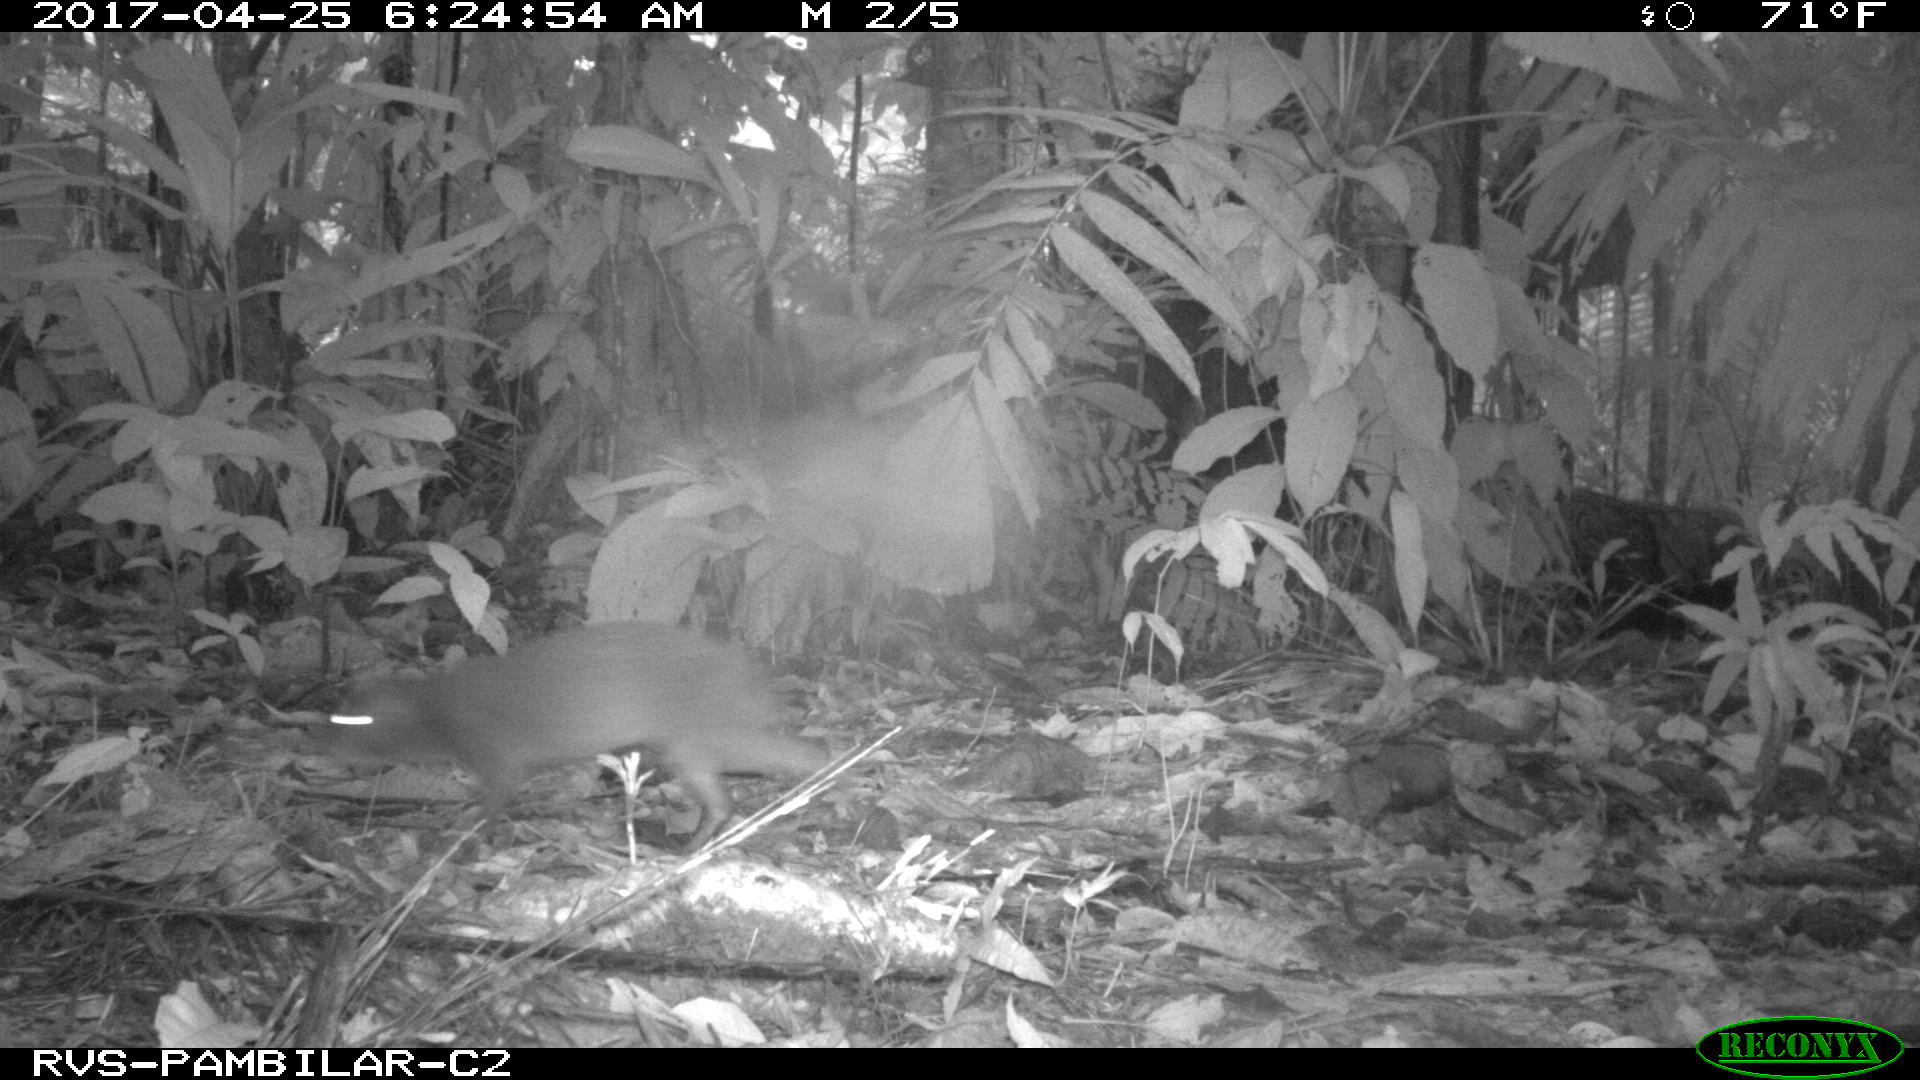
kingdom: Animalia
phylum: Chordata
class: Mammalia
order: Rodentia
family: Dasyproctidae
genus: Dasyprocta
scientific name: Dasyprocta punctata
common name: Central american agouti
